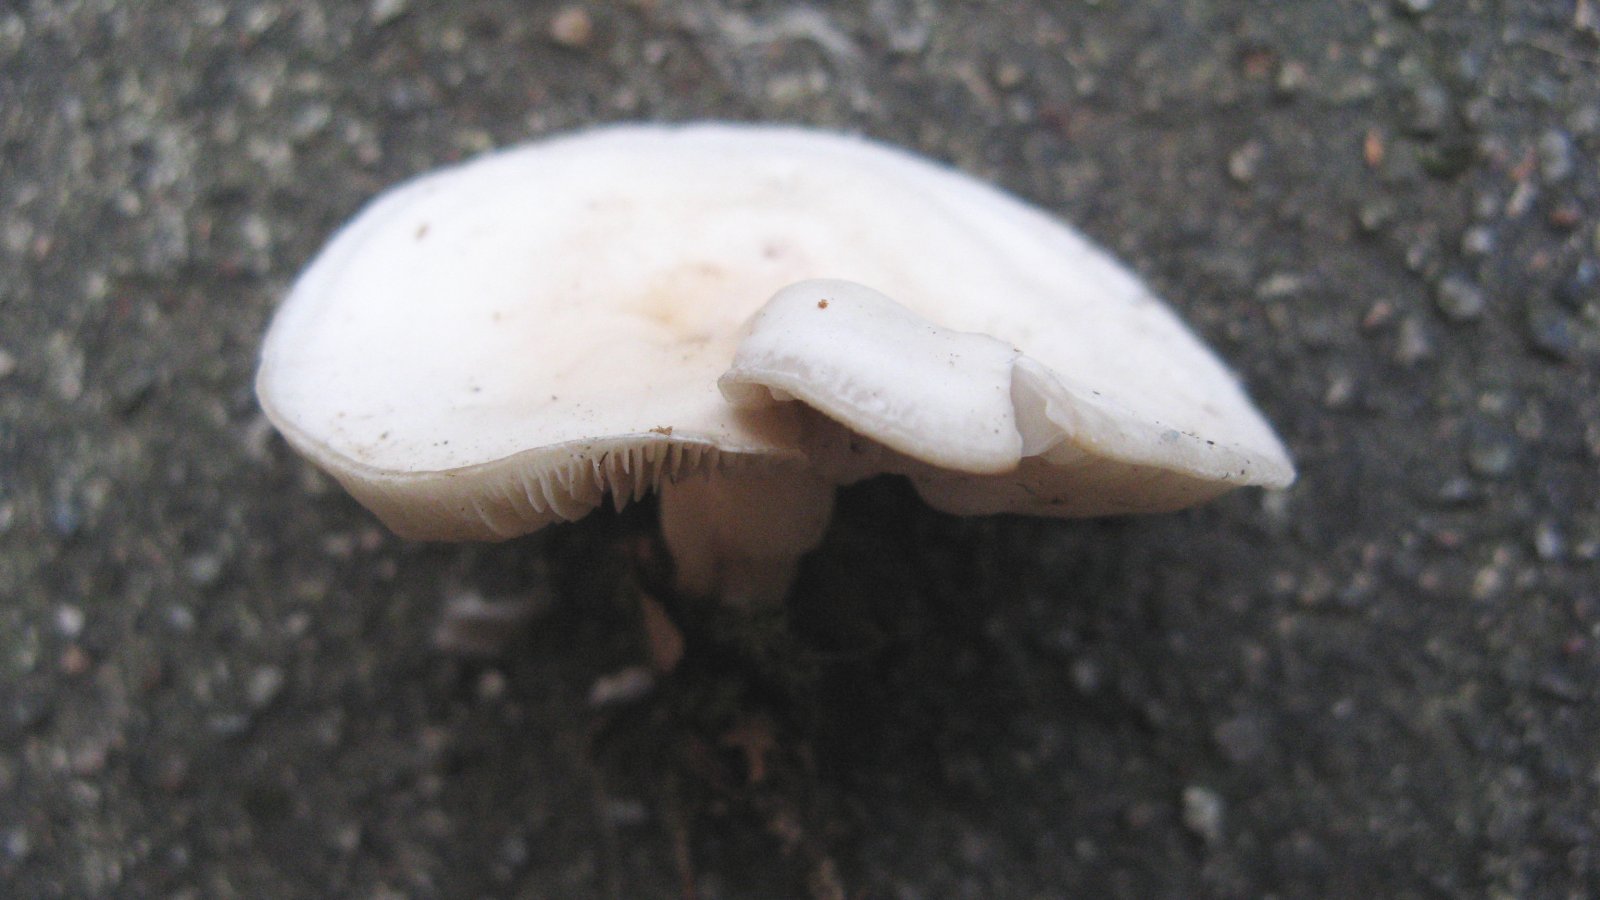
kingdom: Fungi
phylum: Basidiomycota
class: Agaricomycetes
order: Agaricales
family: Tricholomataceae
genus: Clitocybe
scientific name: Clitocybe rivulosa
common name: eng-tragthat
